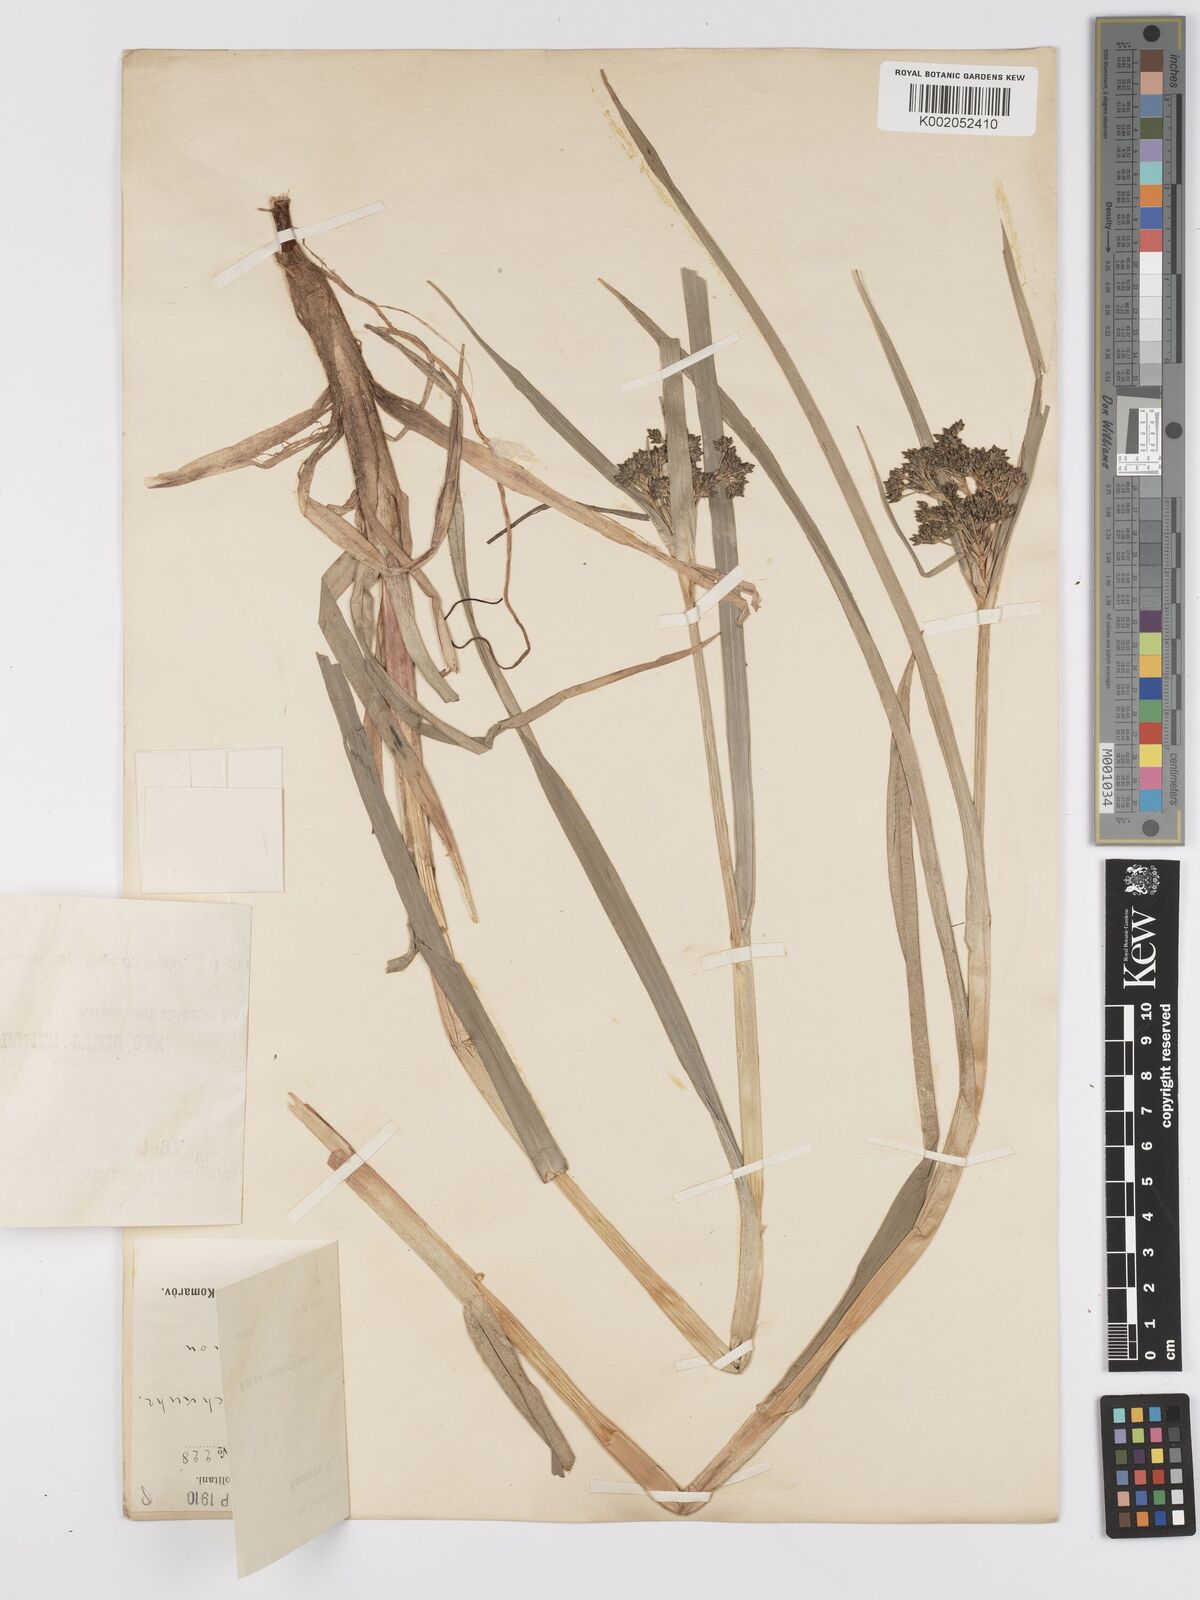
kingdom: Plantae
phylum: Tracheophyta
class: Liliopsida
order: Poales
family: Cyperaceae
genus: Scirpus
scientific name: Scirpus radicans
